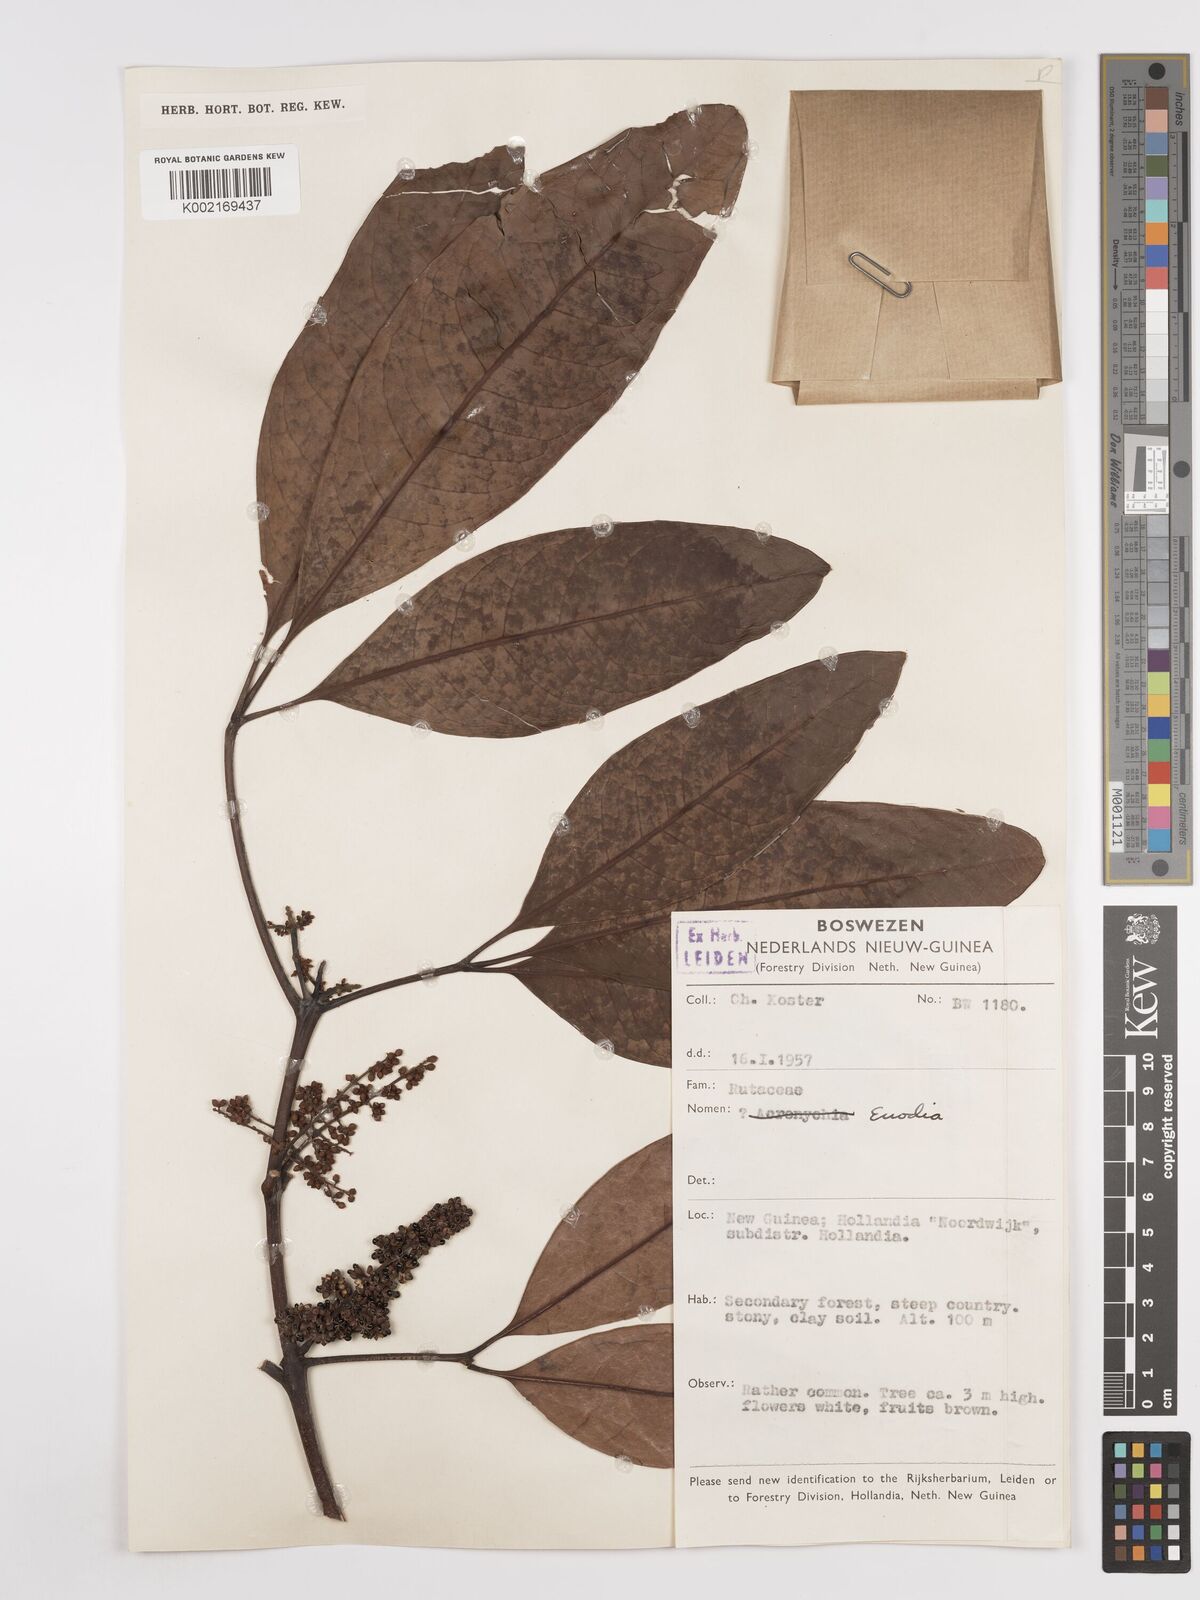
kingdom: Plantae
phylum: Tracheophyta
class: Magnoliopsida
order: Sapindales
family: Rutaceae
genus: Euodia
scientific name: Euodia
